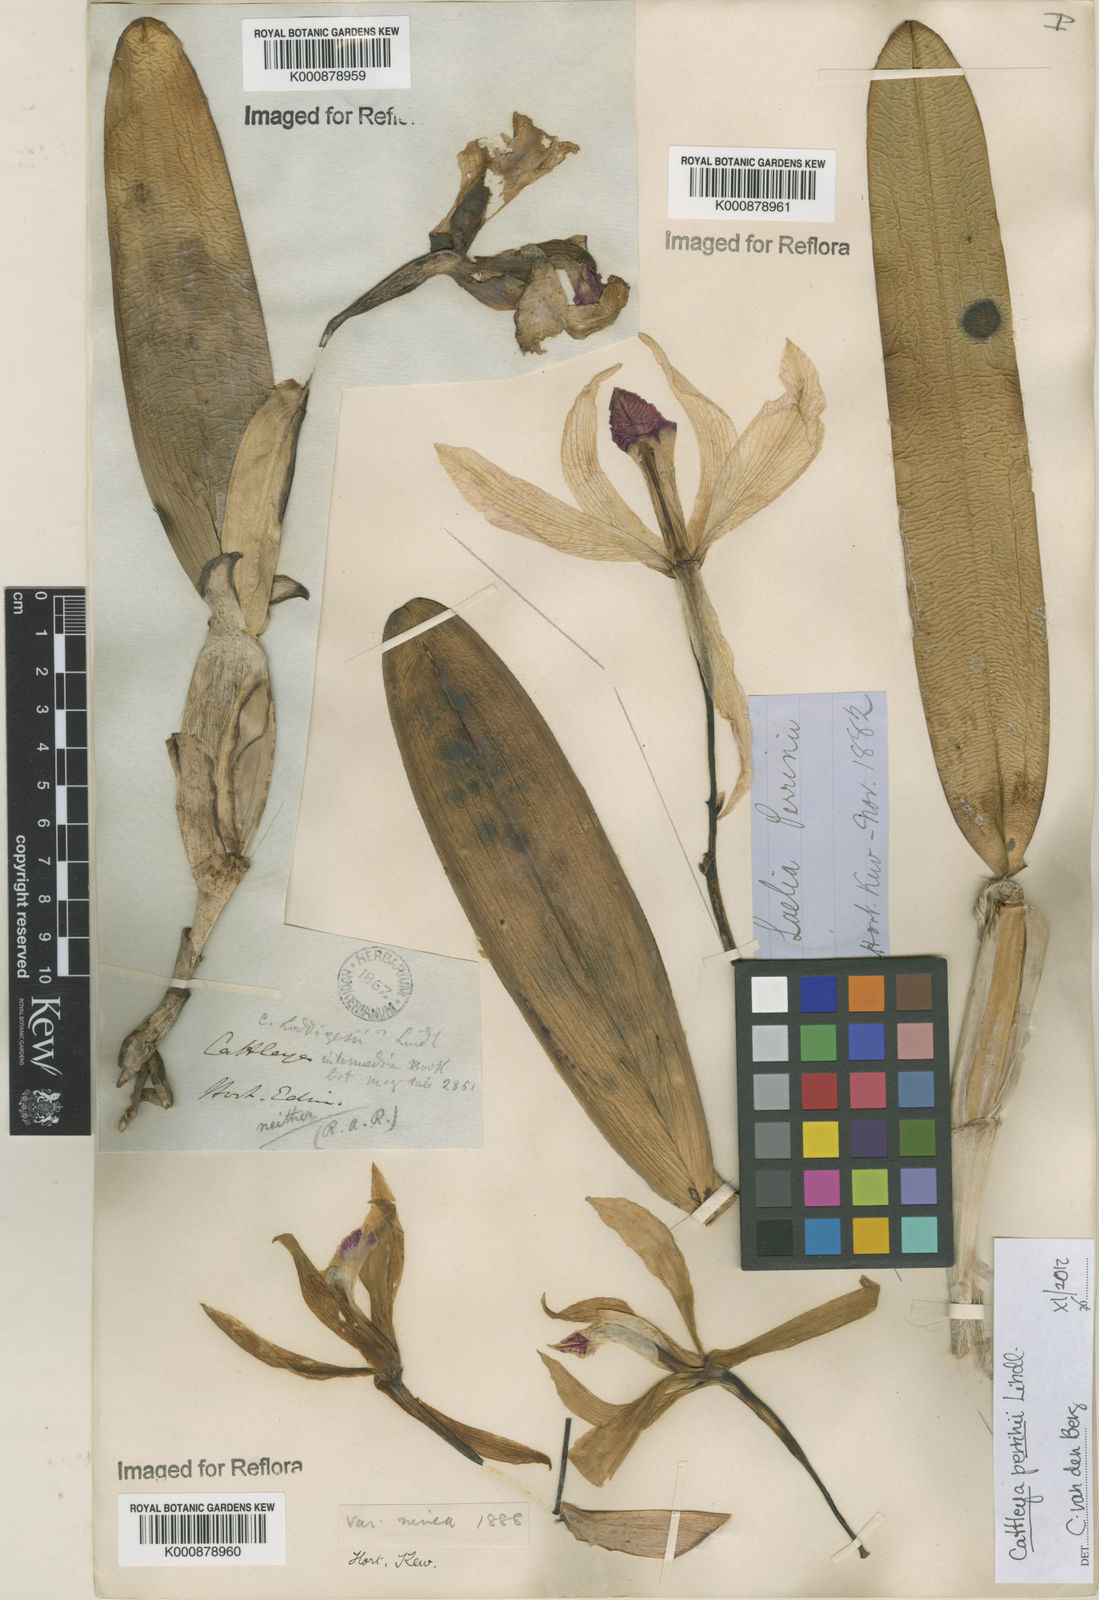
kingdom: Plantae
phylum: Tracheophyta
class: Liliopsida
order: Asparagales
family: Orchidaceae
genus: Cattleya
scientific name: Cattleya perrinii
